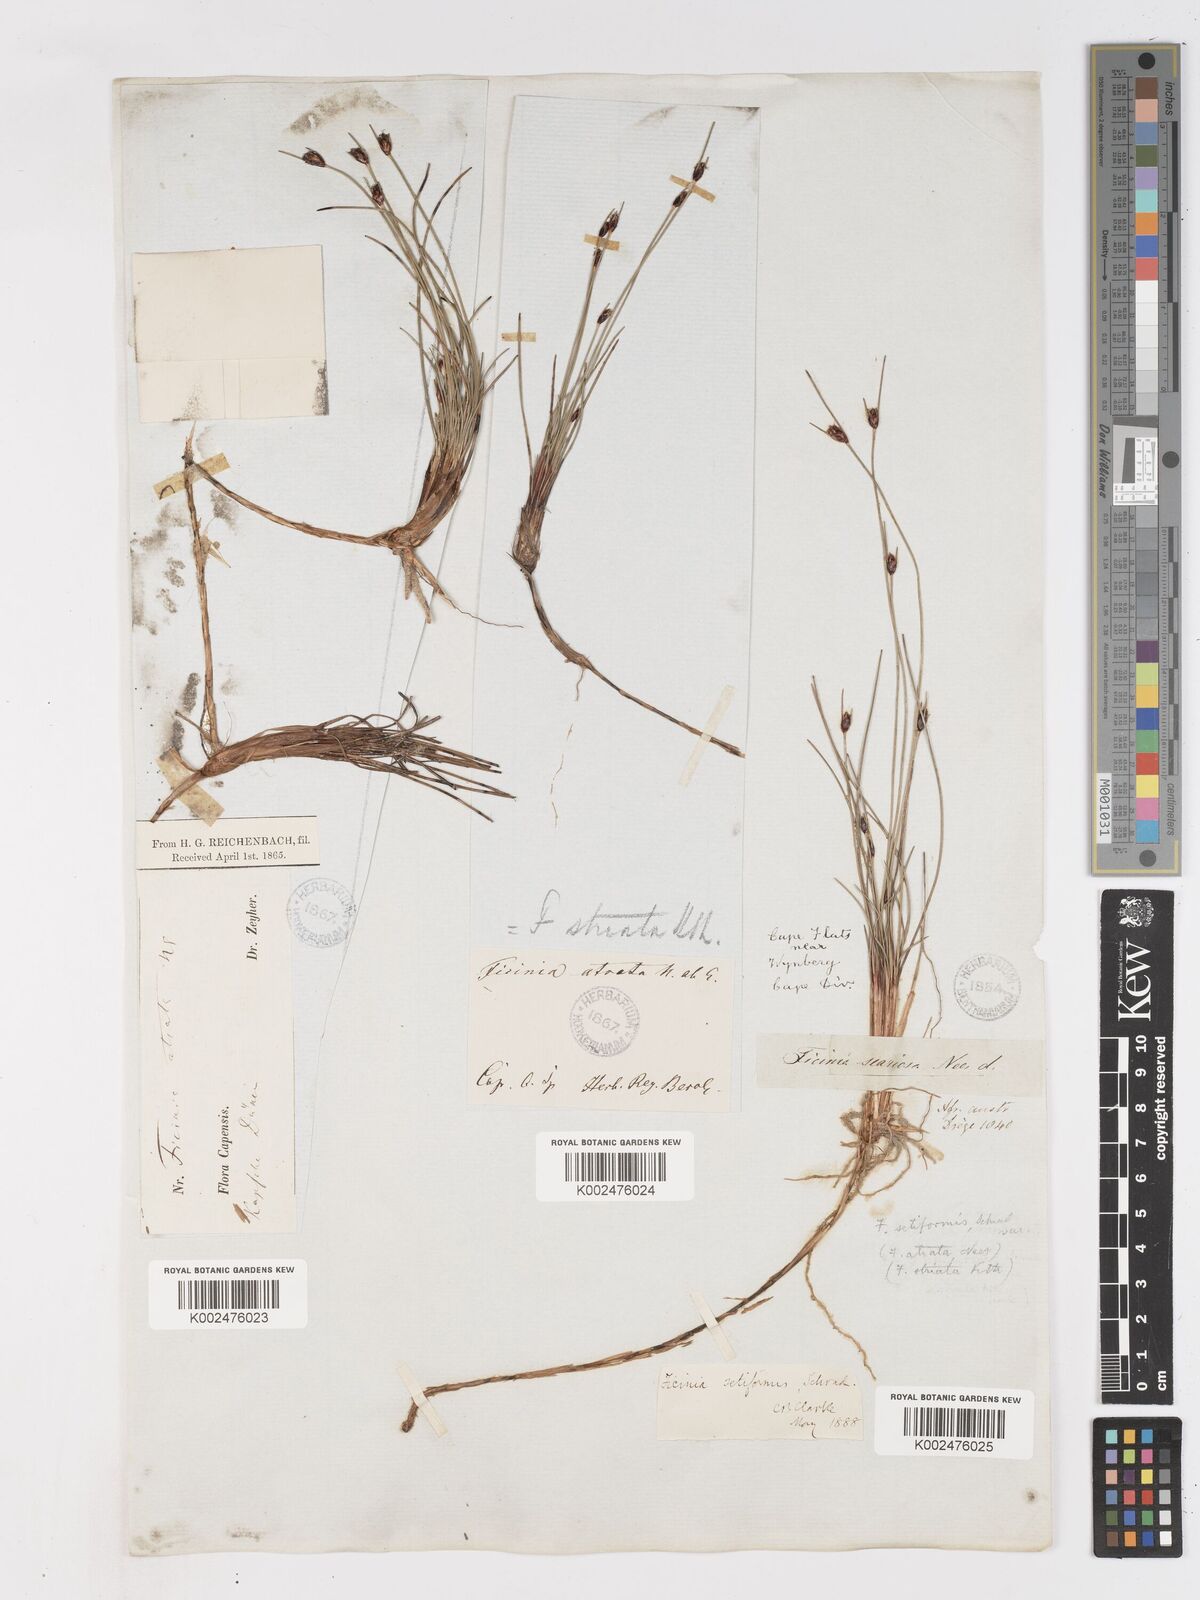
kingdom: Plantae
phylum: Tracheophyta
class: Liliopsida
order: Poales
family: Cyperaceae
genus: Ficinia
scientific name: Ficinia indica
